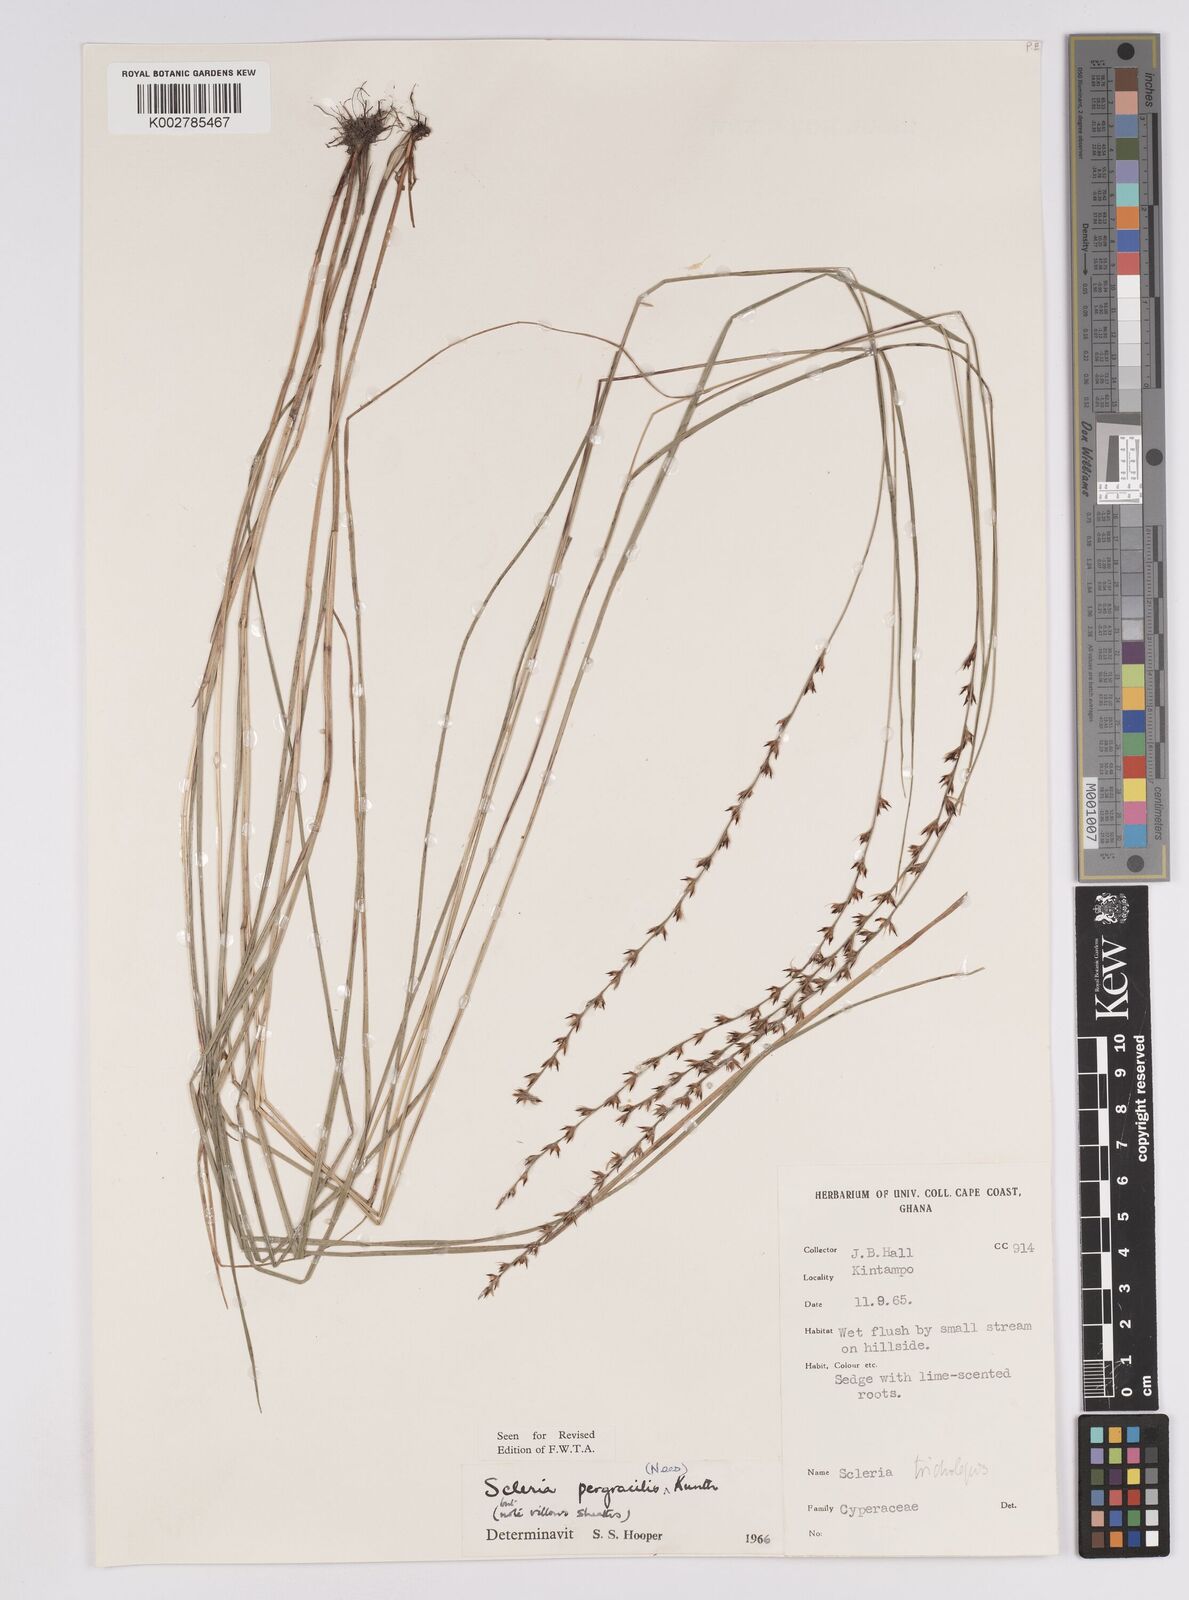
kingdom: Plantae
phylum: Tracheophyta
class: Liliopsida
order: Poales
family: Cyperaceae
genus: Scleria
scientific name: Scleria pergracilis
